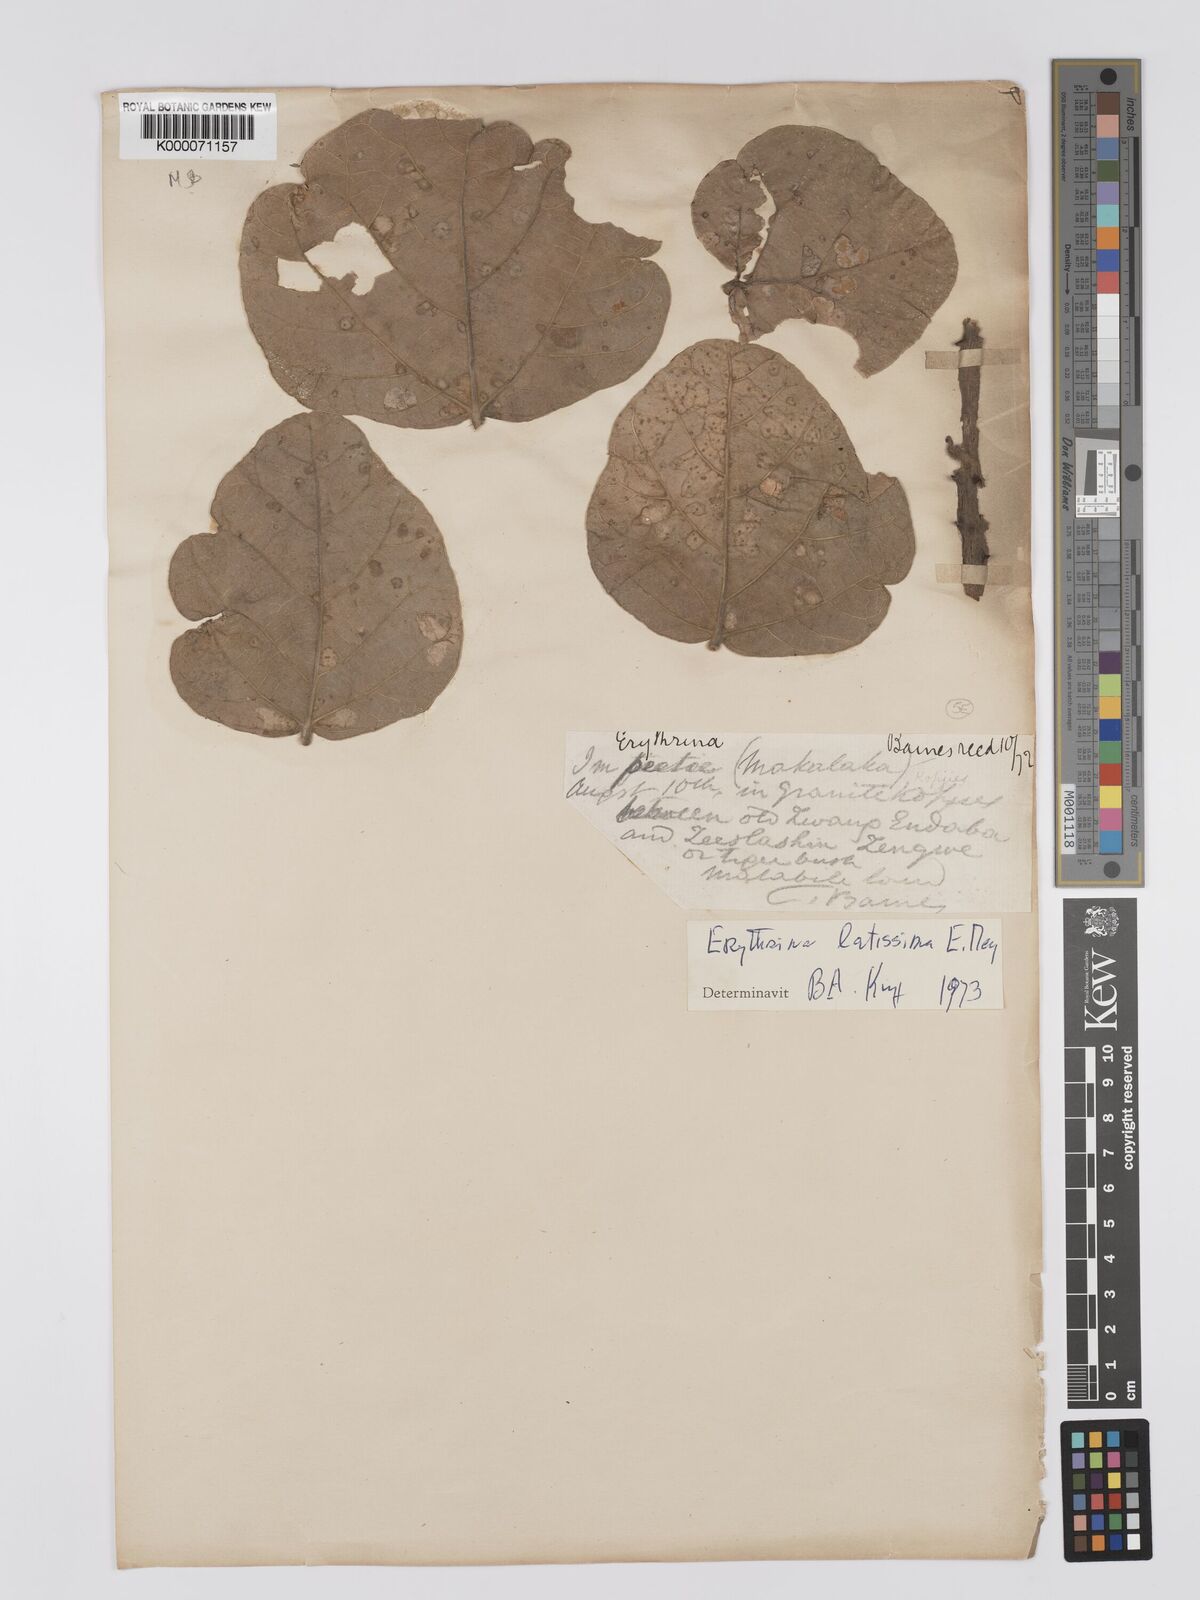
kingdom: Plantae
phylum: Tracheophyta
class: Magnoliopsida
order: Fabales
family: Fabaceae
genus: Erythrina
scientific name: Erythrina latissima
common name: Broad-leaved coral tree
